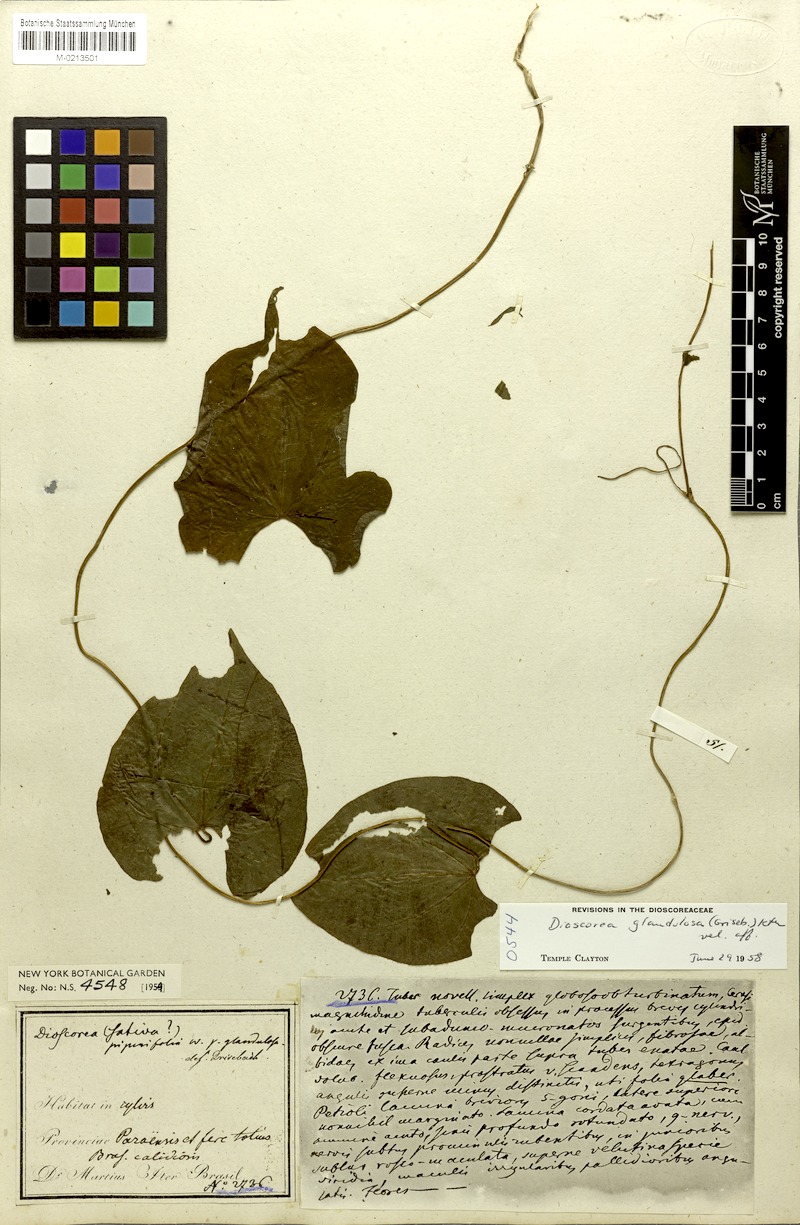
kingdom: Plantae
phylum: Tracheophyta
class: Liliopsida
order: Dioscoreales
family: Dioscoreaceae
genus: Dioscorea
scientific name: Dioscorea glandulosa
